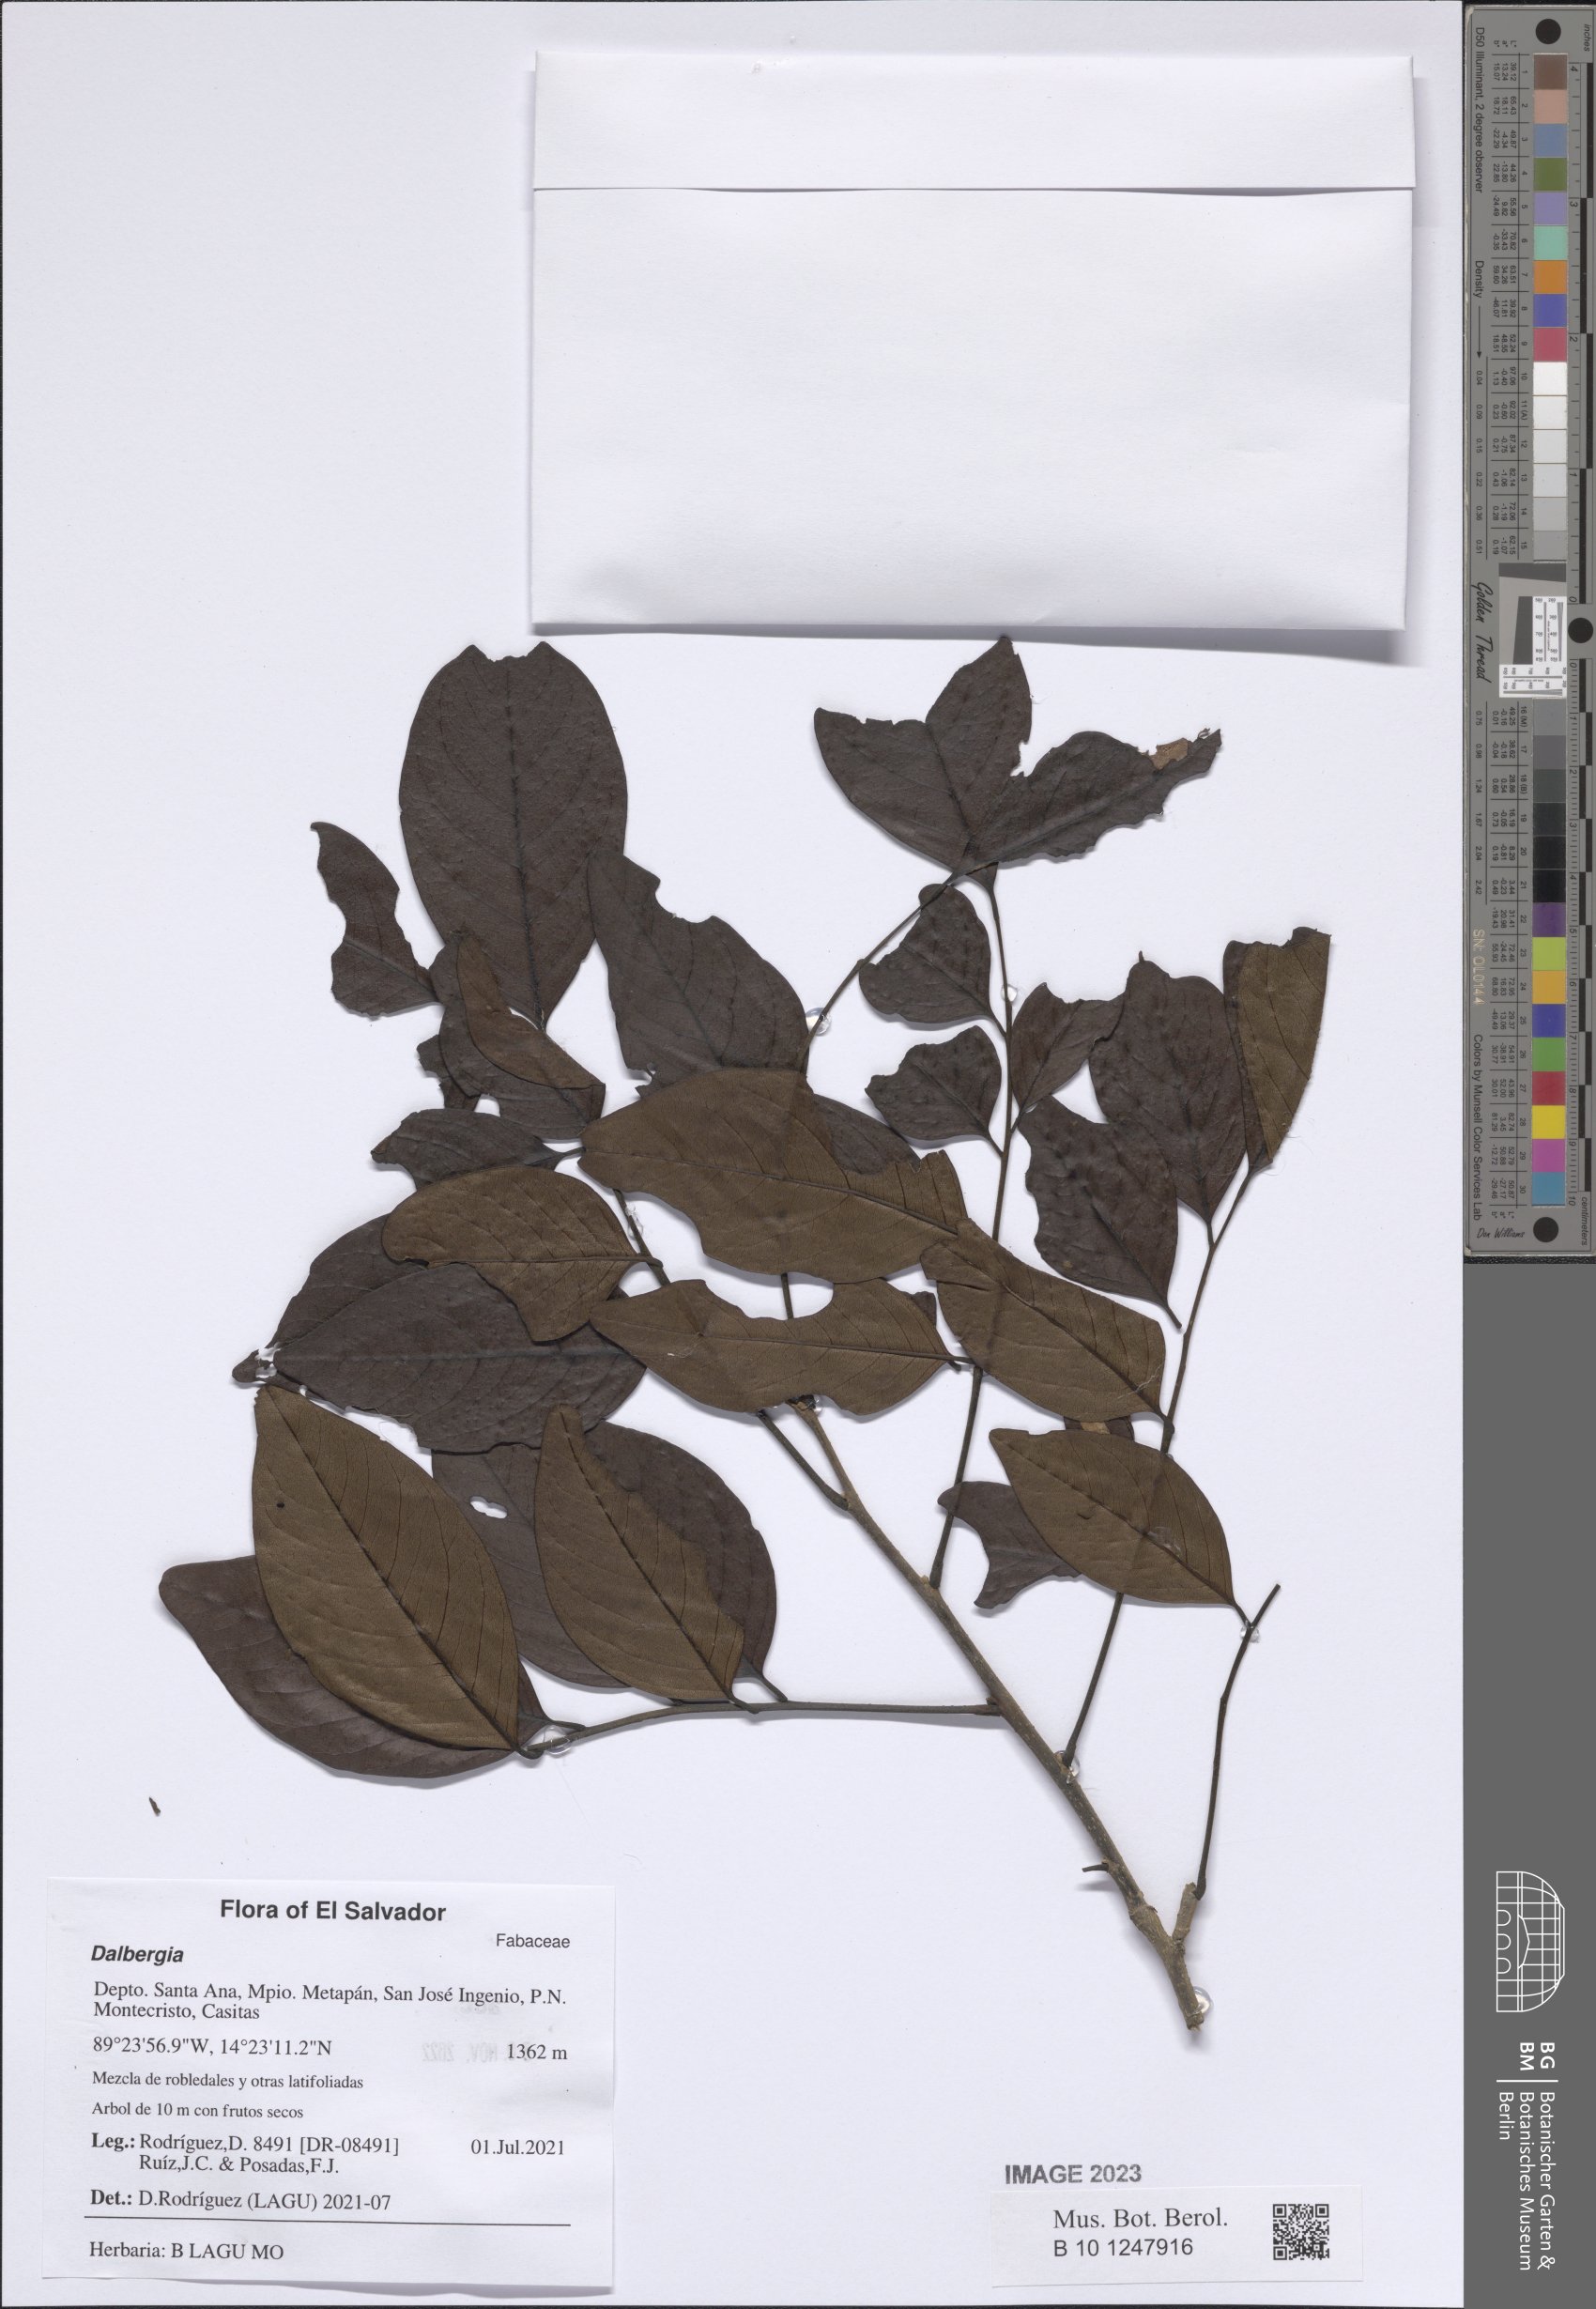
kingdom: Plantae
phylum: Tracheophyta
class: Magnoliopsida
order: Fabales
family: Fabaceae
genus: Dalbergia
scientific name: Dalbergia
